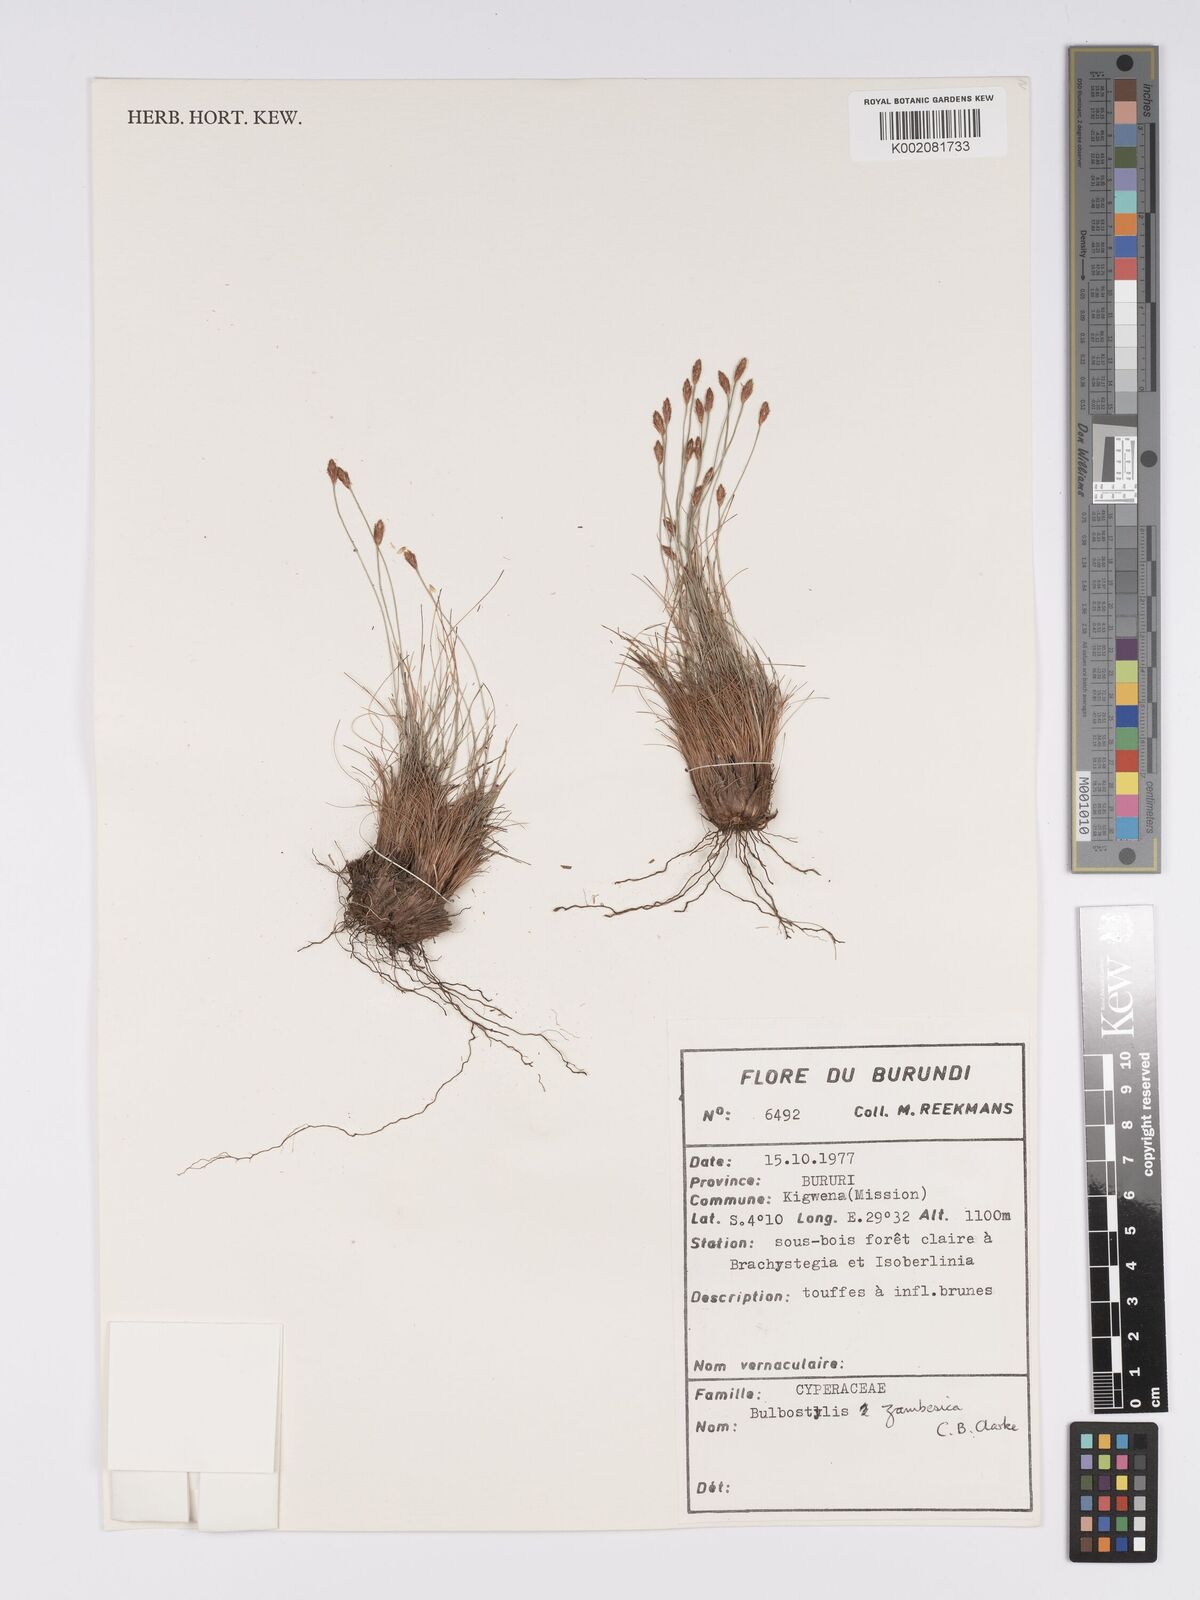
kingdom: Plantae
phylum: Tracheophyta
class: Liliopsida
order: Poales
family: Cyperaceae
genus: Bulbostylis
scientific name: Bulbostylis macra
